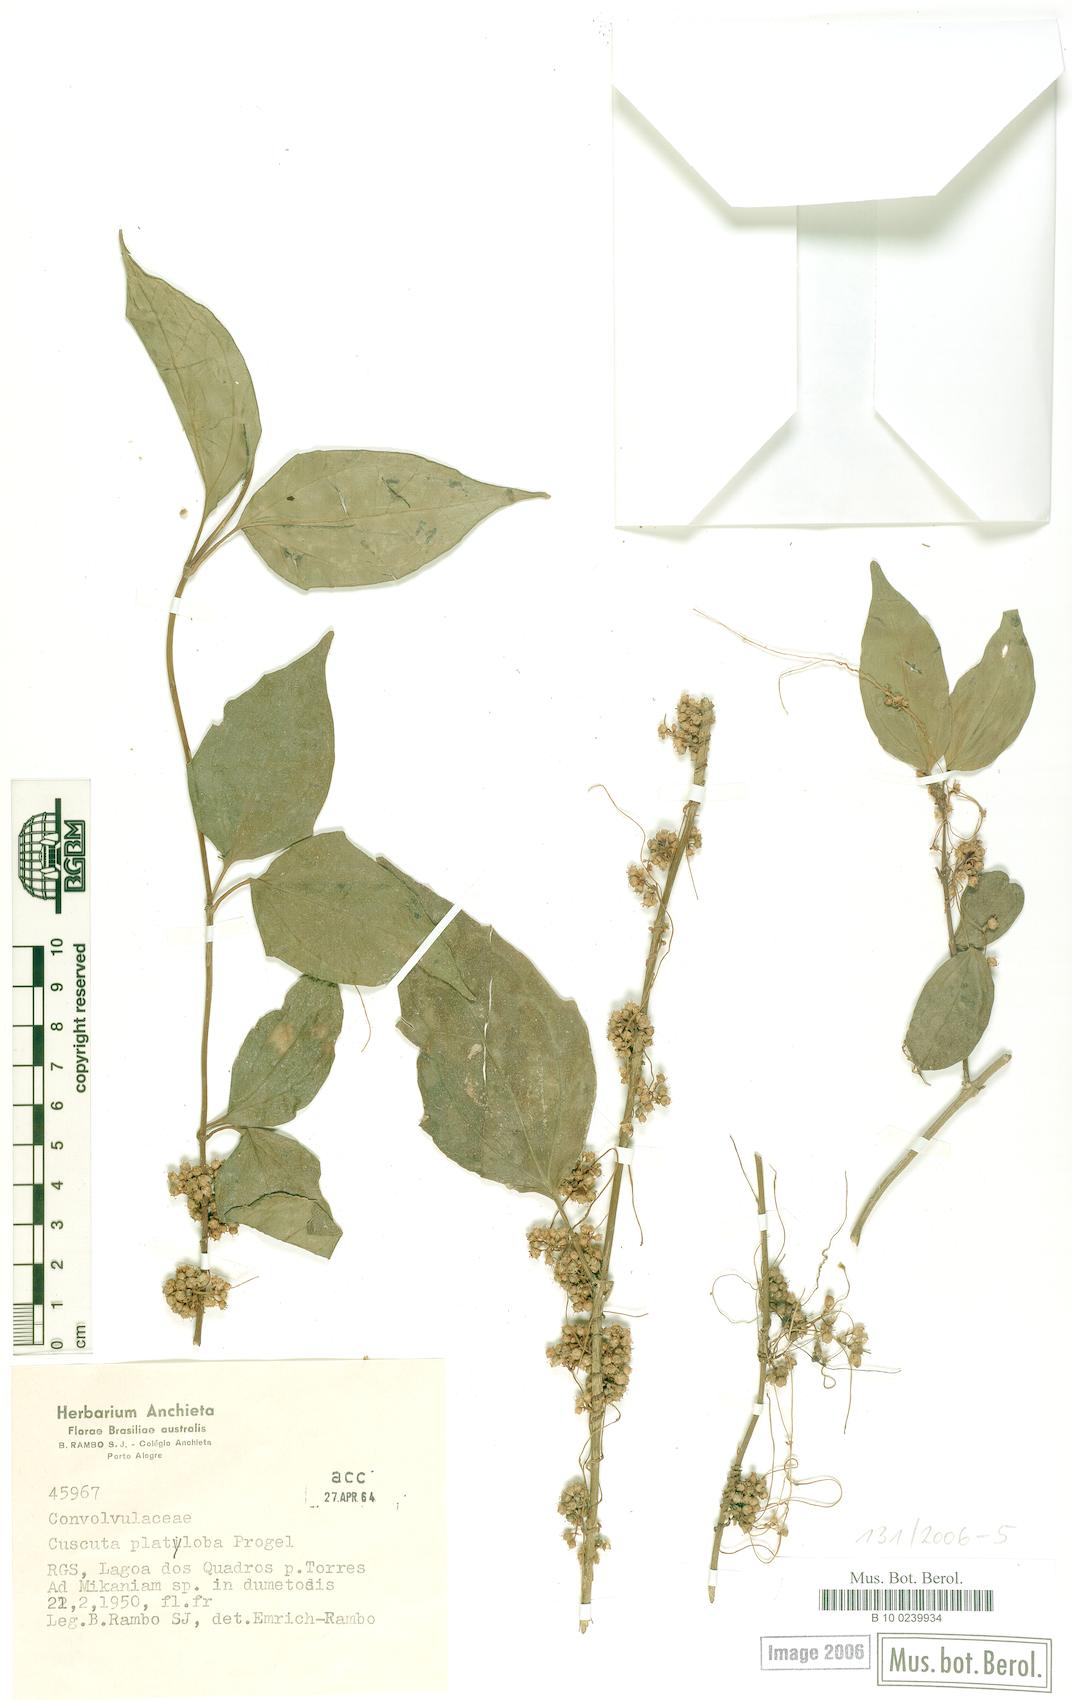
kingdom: Plantae
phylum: Tracheophyta
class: Magnoliopsida
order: Solanales
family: Convolvulaceae
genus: Cuscuta
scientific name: Cuscuta platyloba
